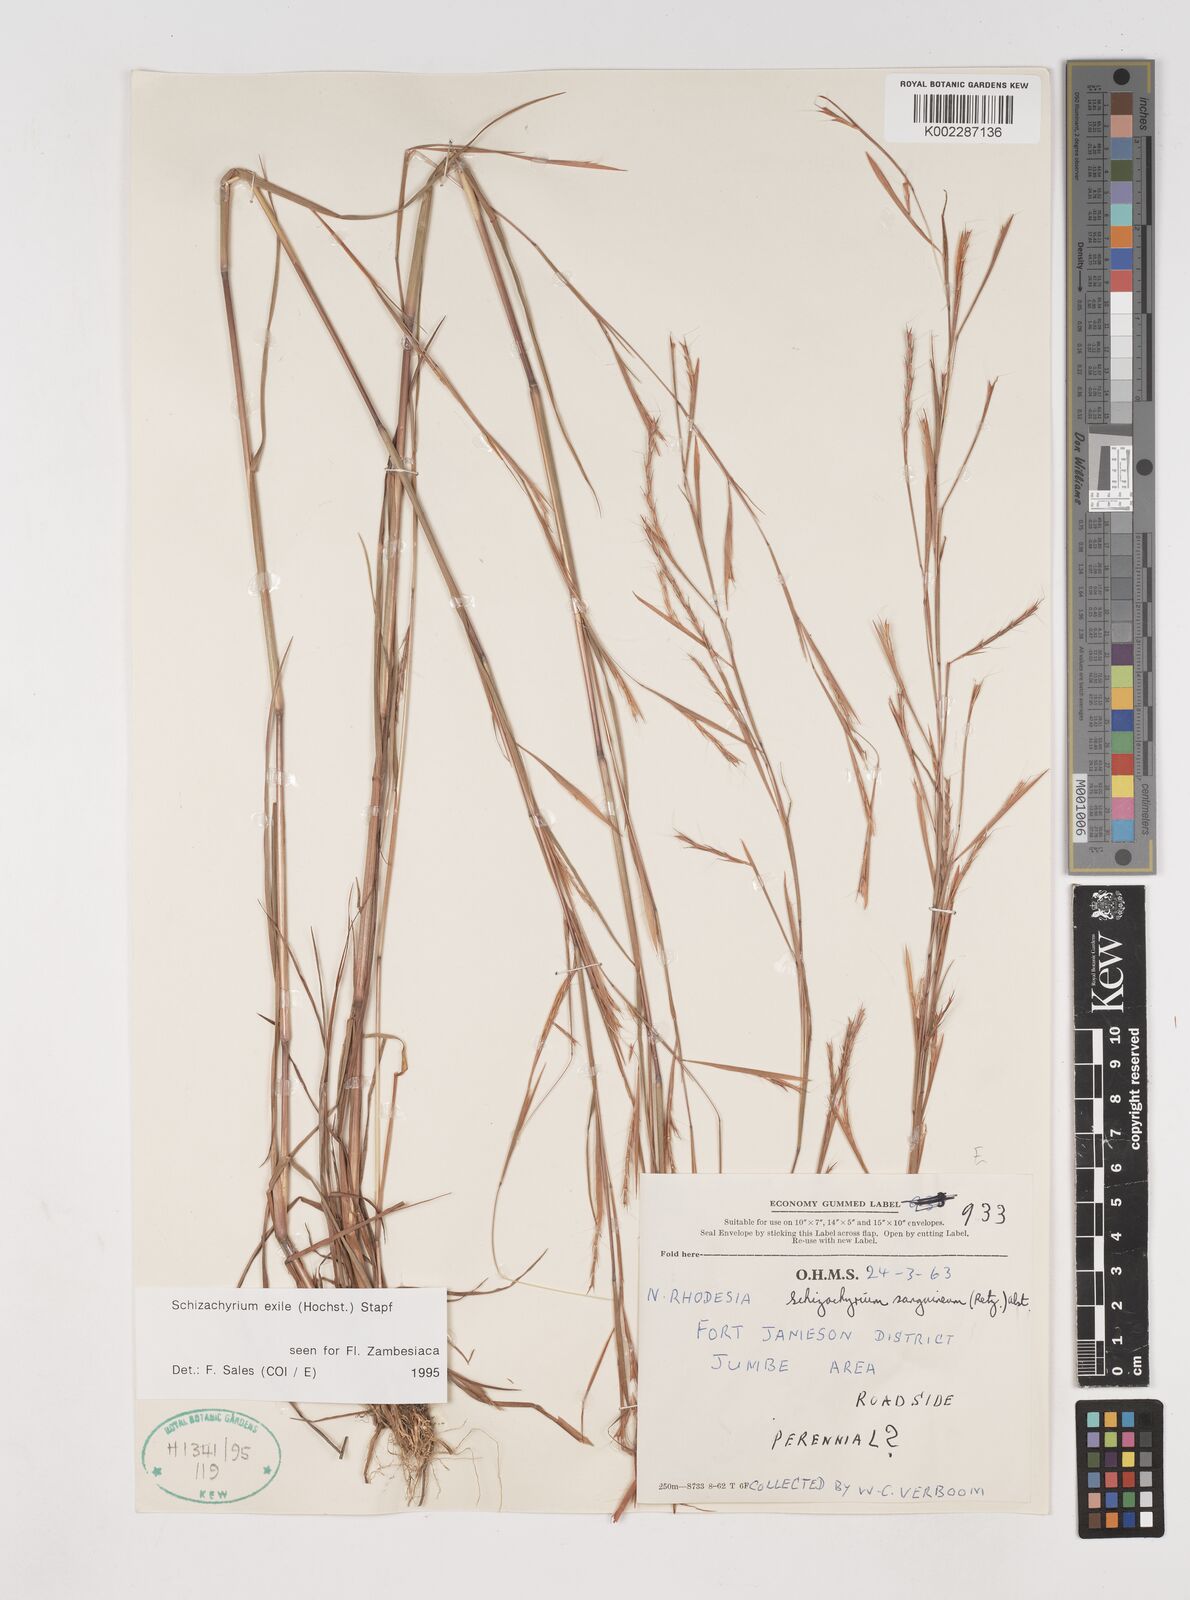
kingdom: Plantae
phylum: Tracheophyta
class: Liliopsida
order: Poales
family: Poaceae
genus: Schizachyrium
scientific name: Schizachyrium exile
